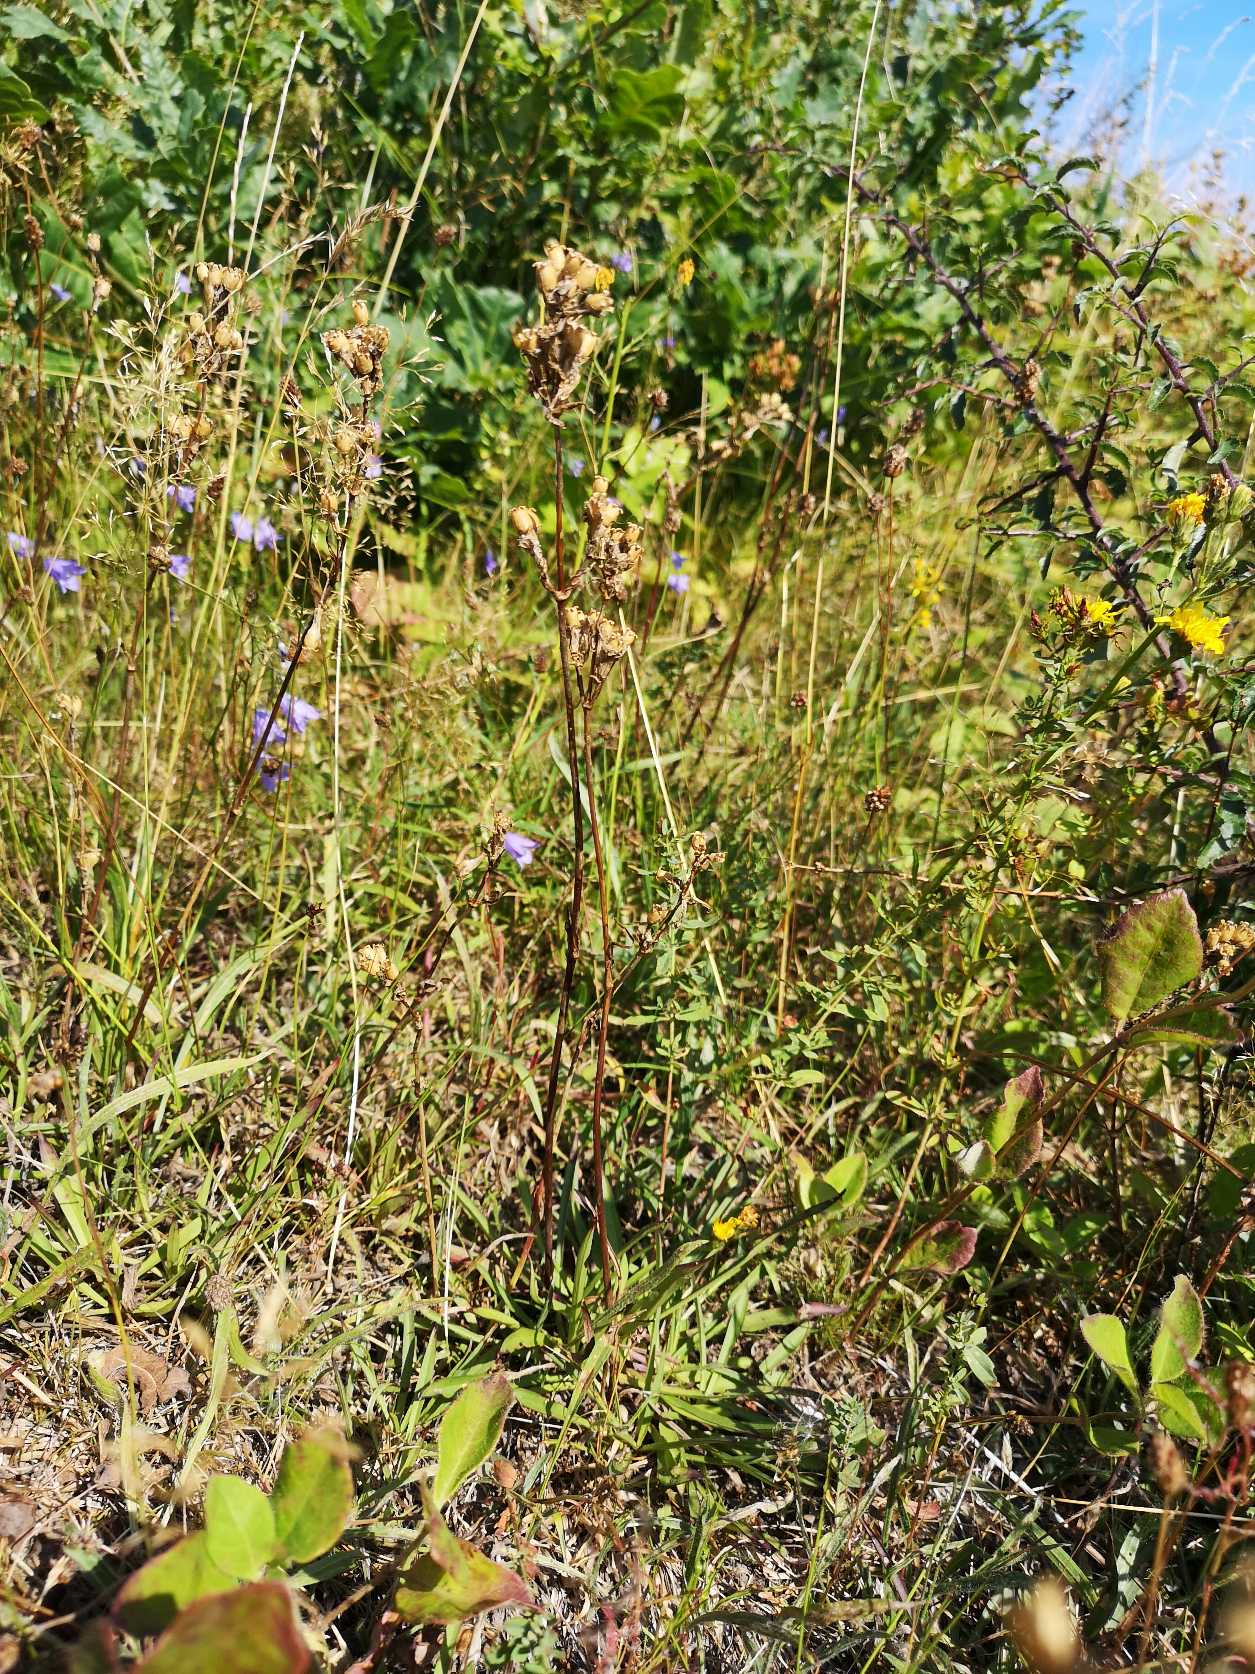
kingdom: Plantae
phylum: Tracheophyta
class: Magnoliopsida
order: Caryophyllales
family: Caryophyllaceae
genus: Viscaria
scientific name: Viscaria vulgaris
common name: Tjærenellike
